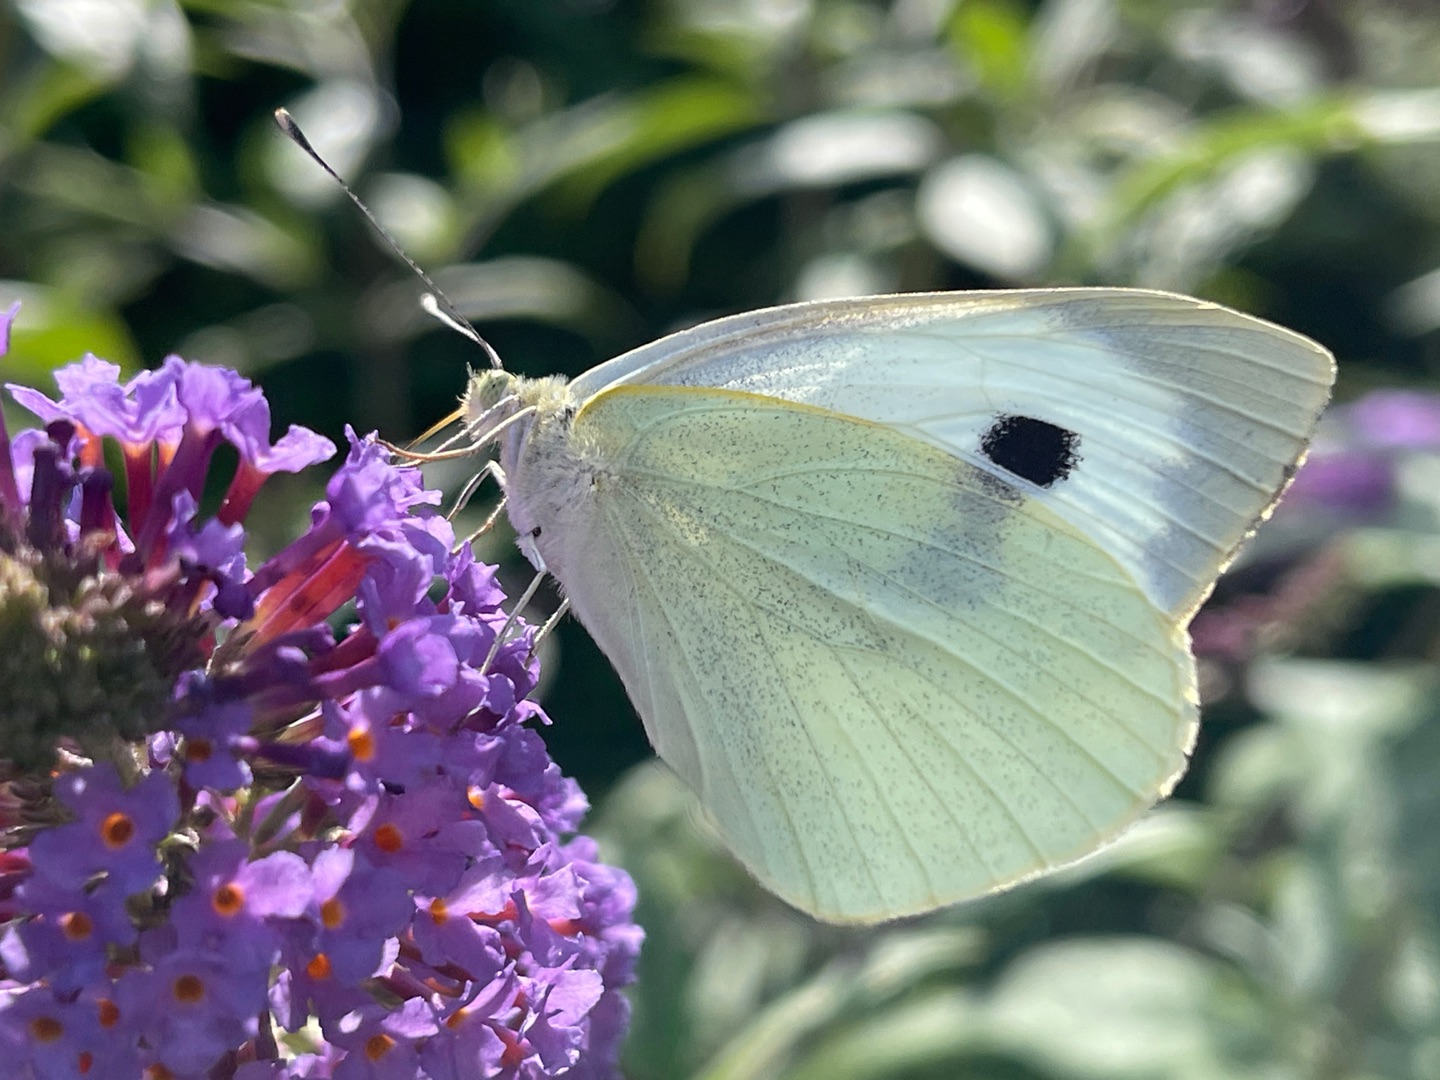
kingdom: Animalia
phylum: Arthropoda
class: Insecta
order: Lepidoptera
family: Pieridae
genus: Pieris
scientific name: Pieris brassicae
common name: Stor kålsommerfugl
